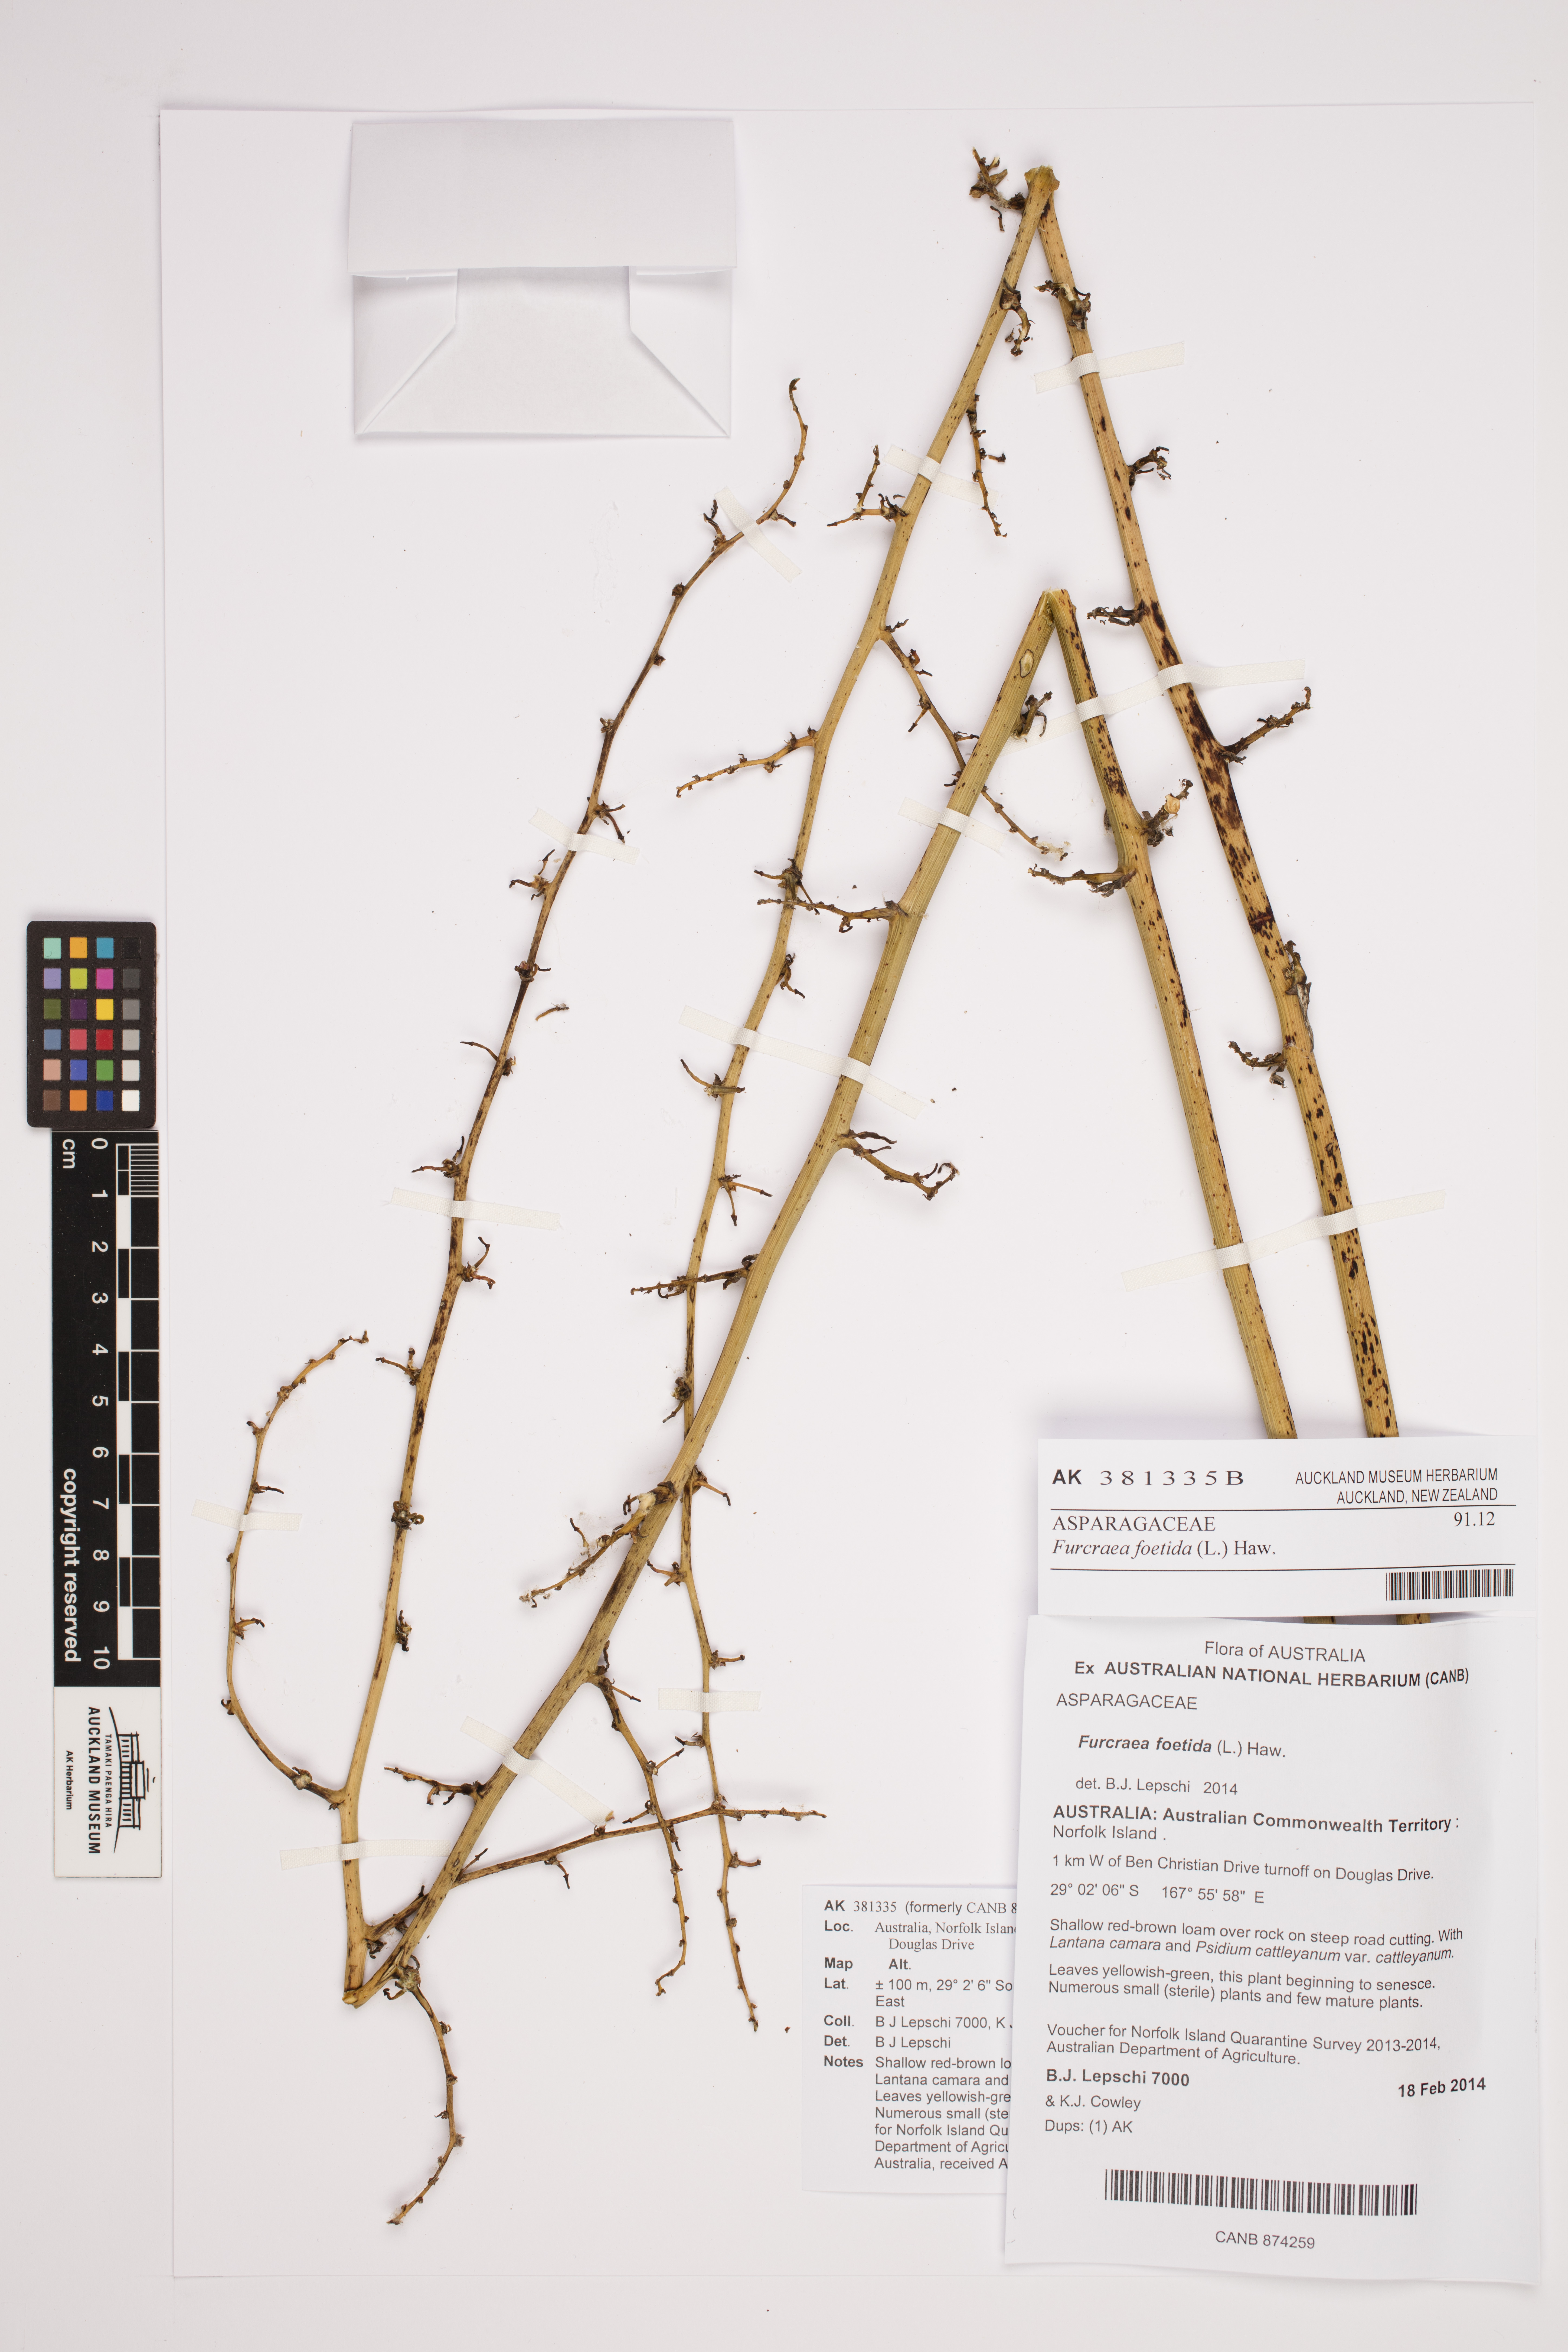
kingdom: Plantae
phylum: Tracheophyta
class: Liliopsida
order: Asparagales
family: Asparagaceae
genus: Furcraea
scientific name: Furcraea foetida
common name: Mauritius hemp
